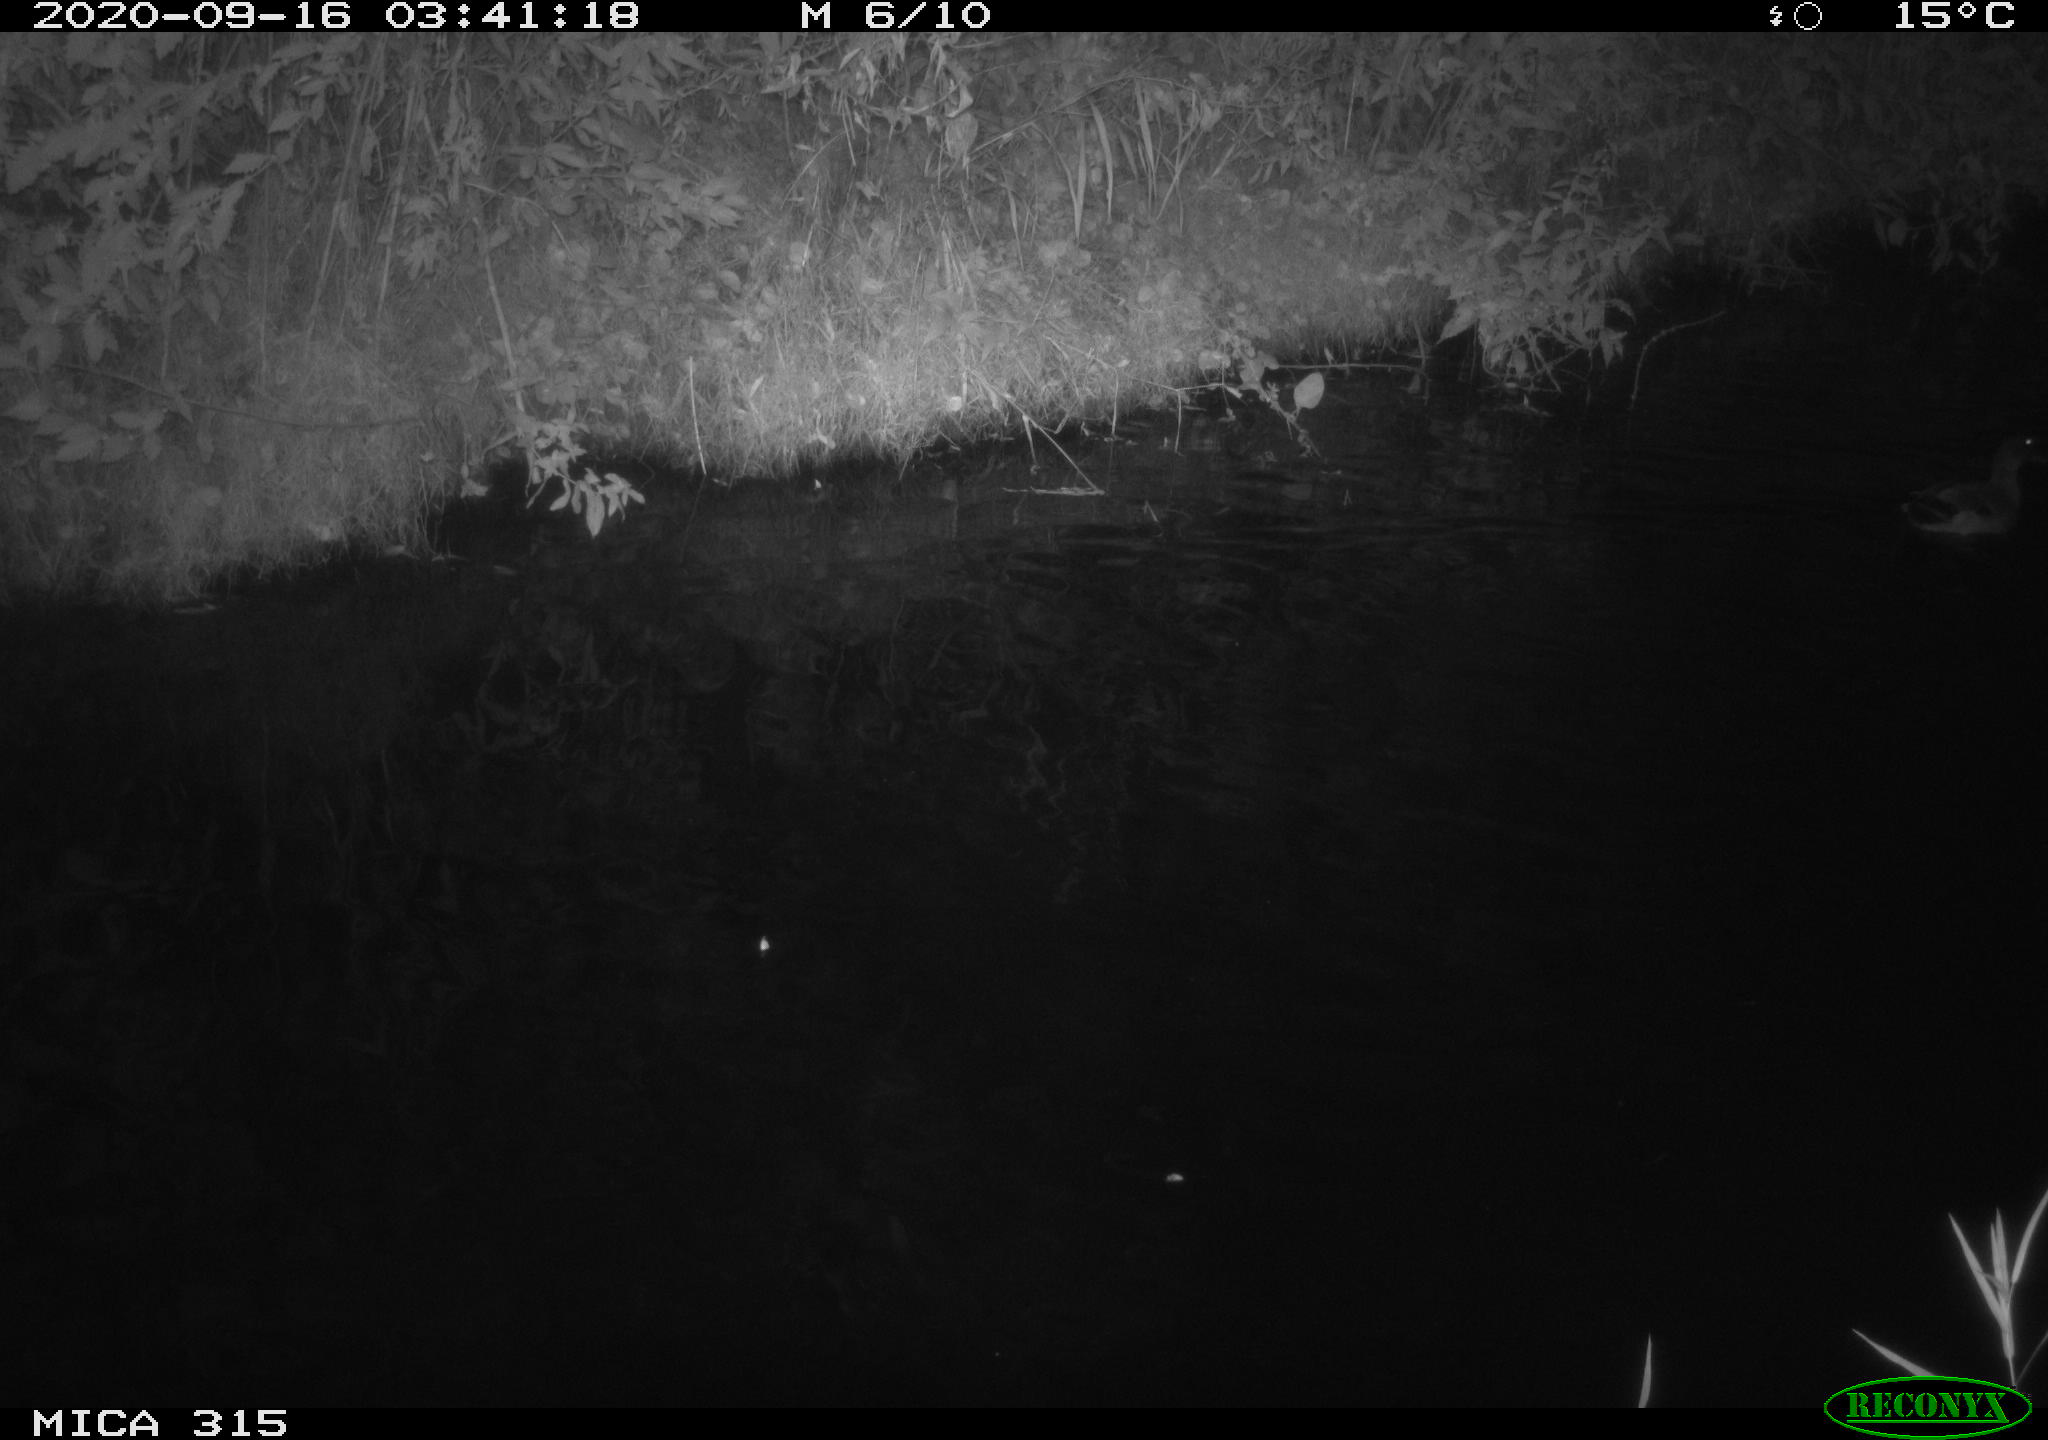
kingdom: Animalia
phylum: Chordata
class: Aves
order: Anseriformes
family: Anatidae
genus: Anas
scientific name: Anas platyrhynchos
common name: Mallard
